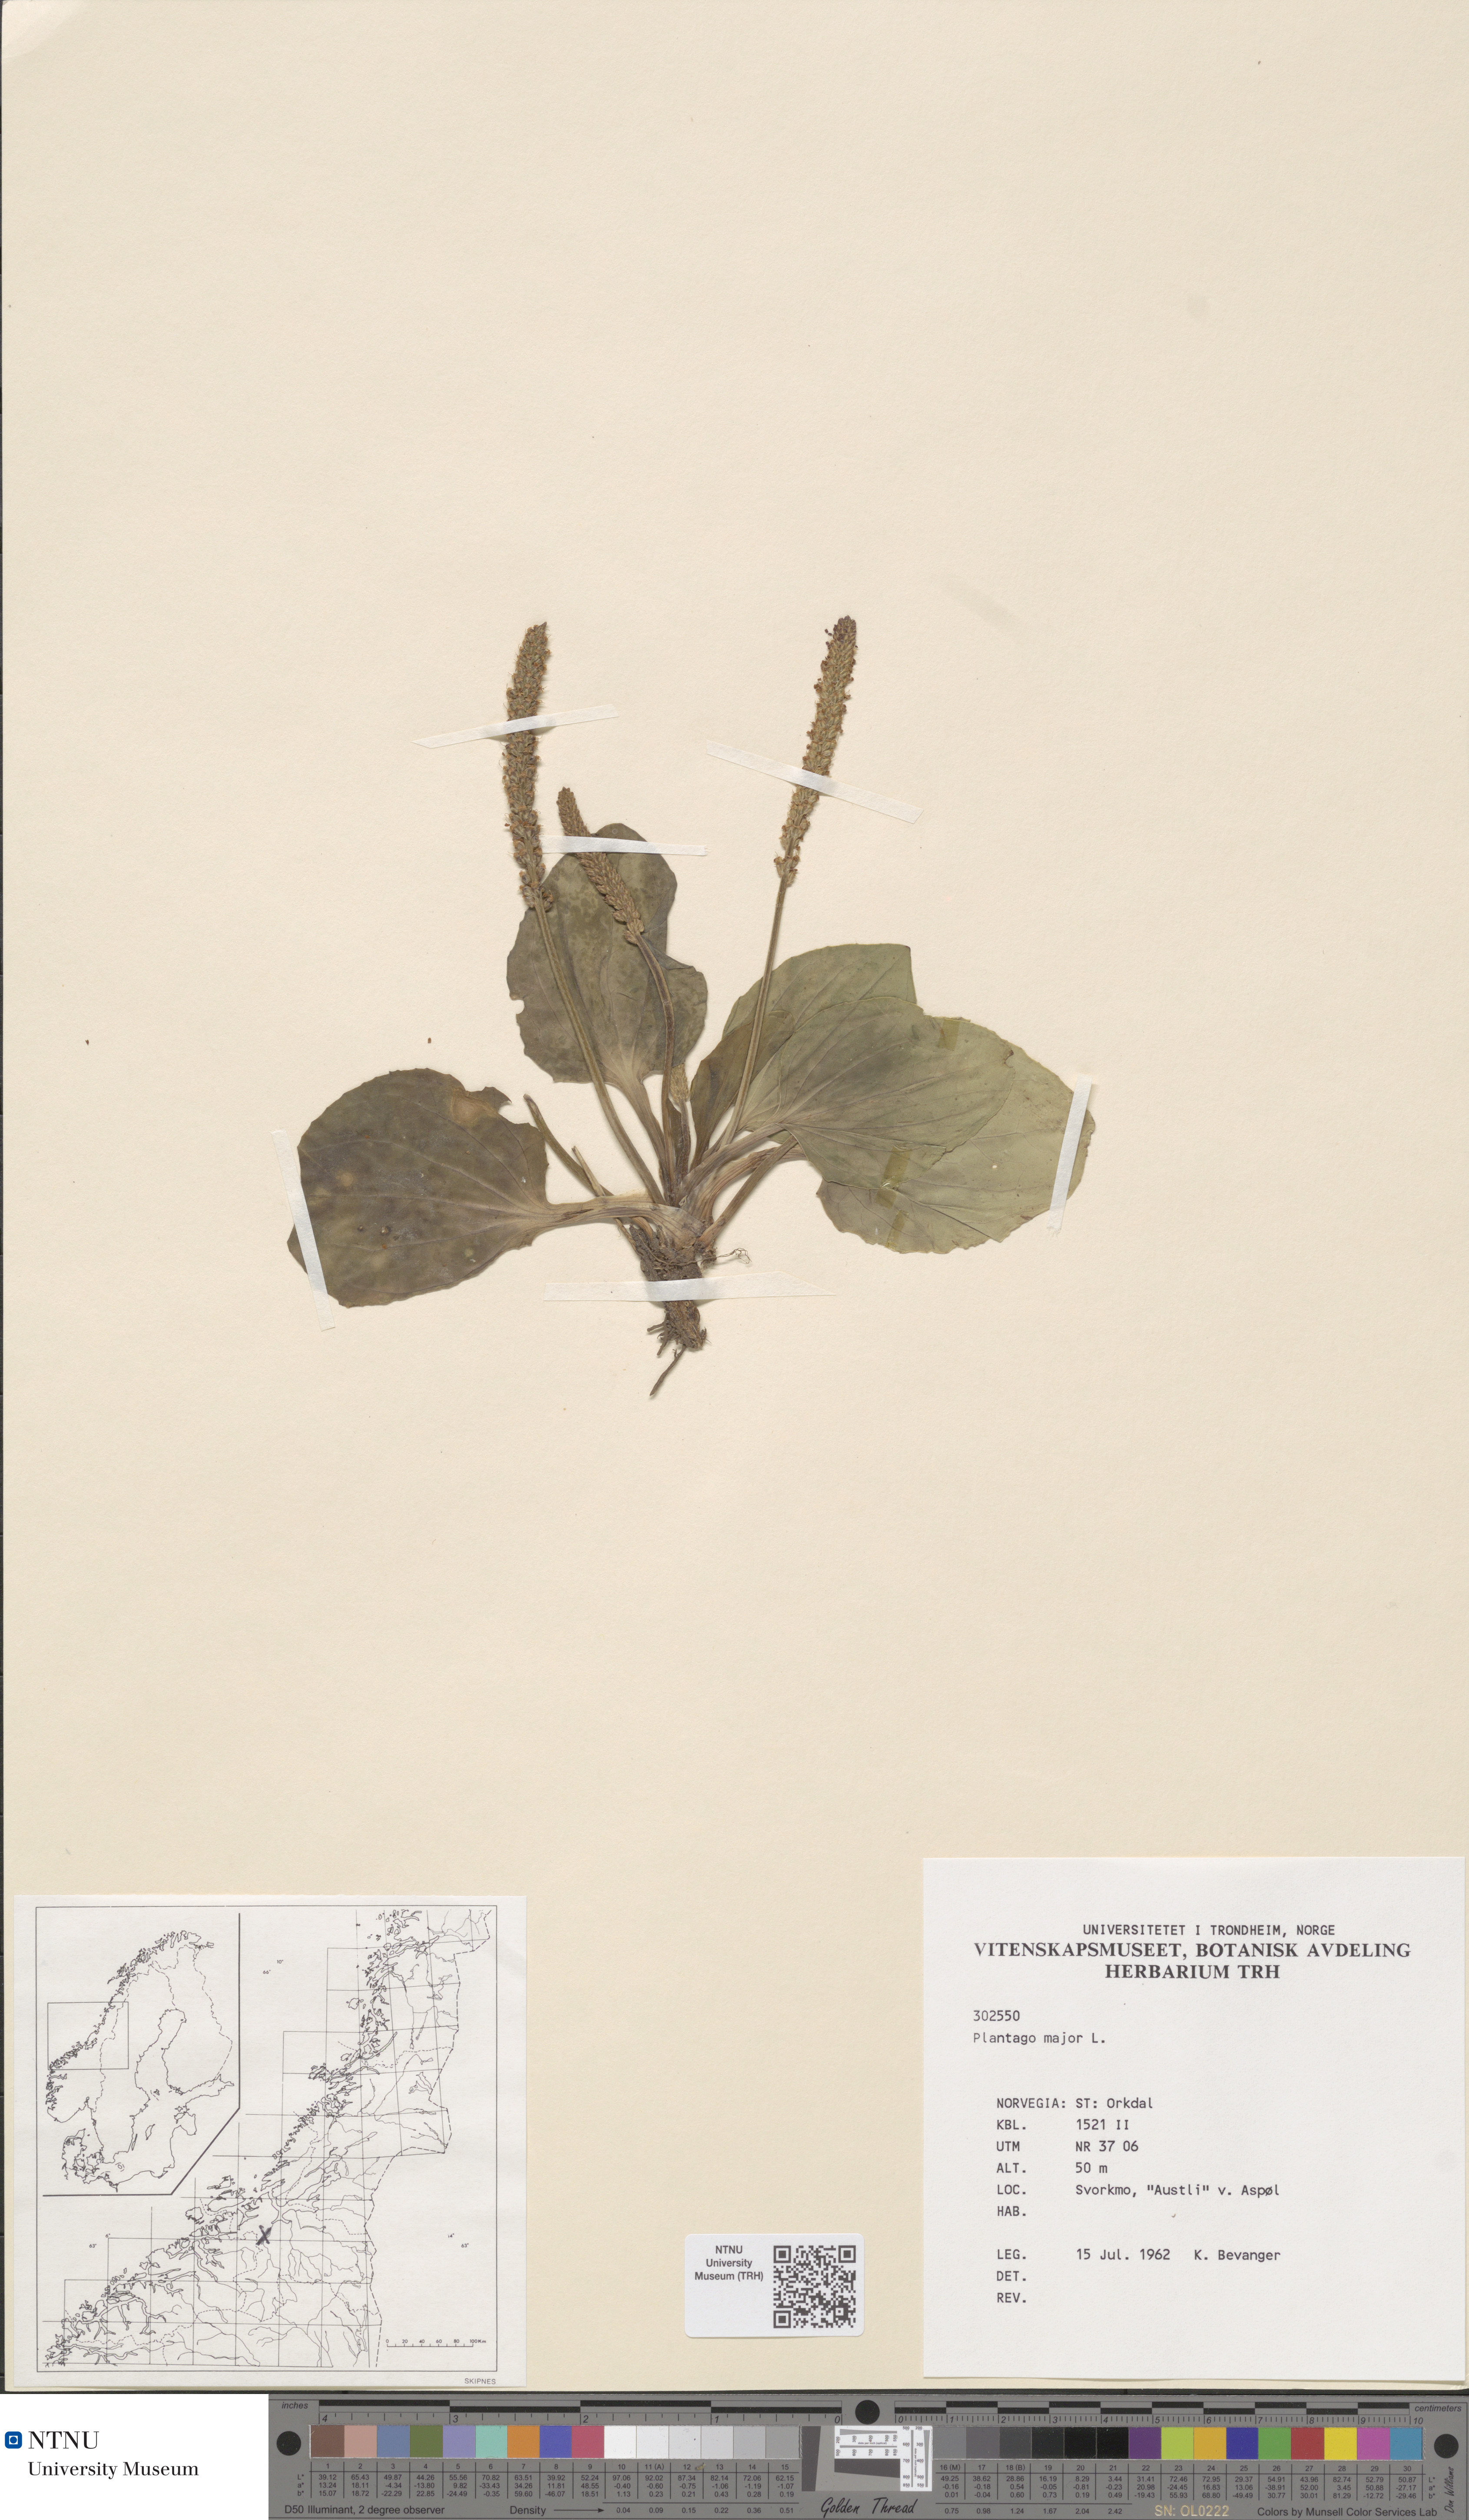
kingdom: Plantae
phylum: Tracheophyta
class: Magnoliopsida
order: Lamiales
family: Plantaginaceae
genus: Plantago
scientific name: Plantago major
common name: Common plantain
